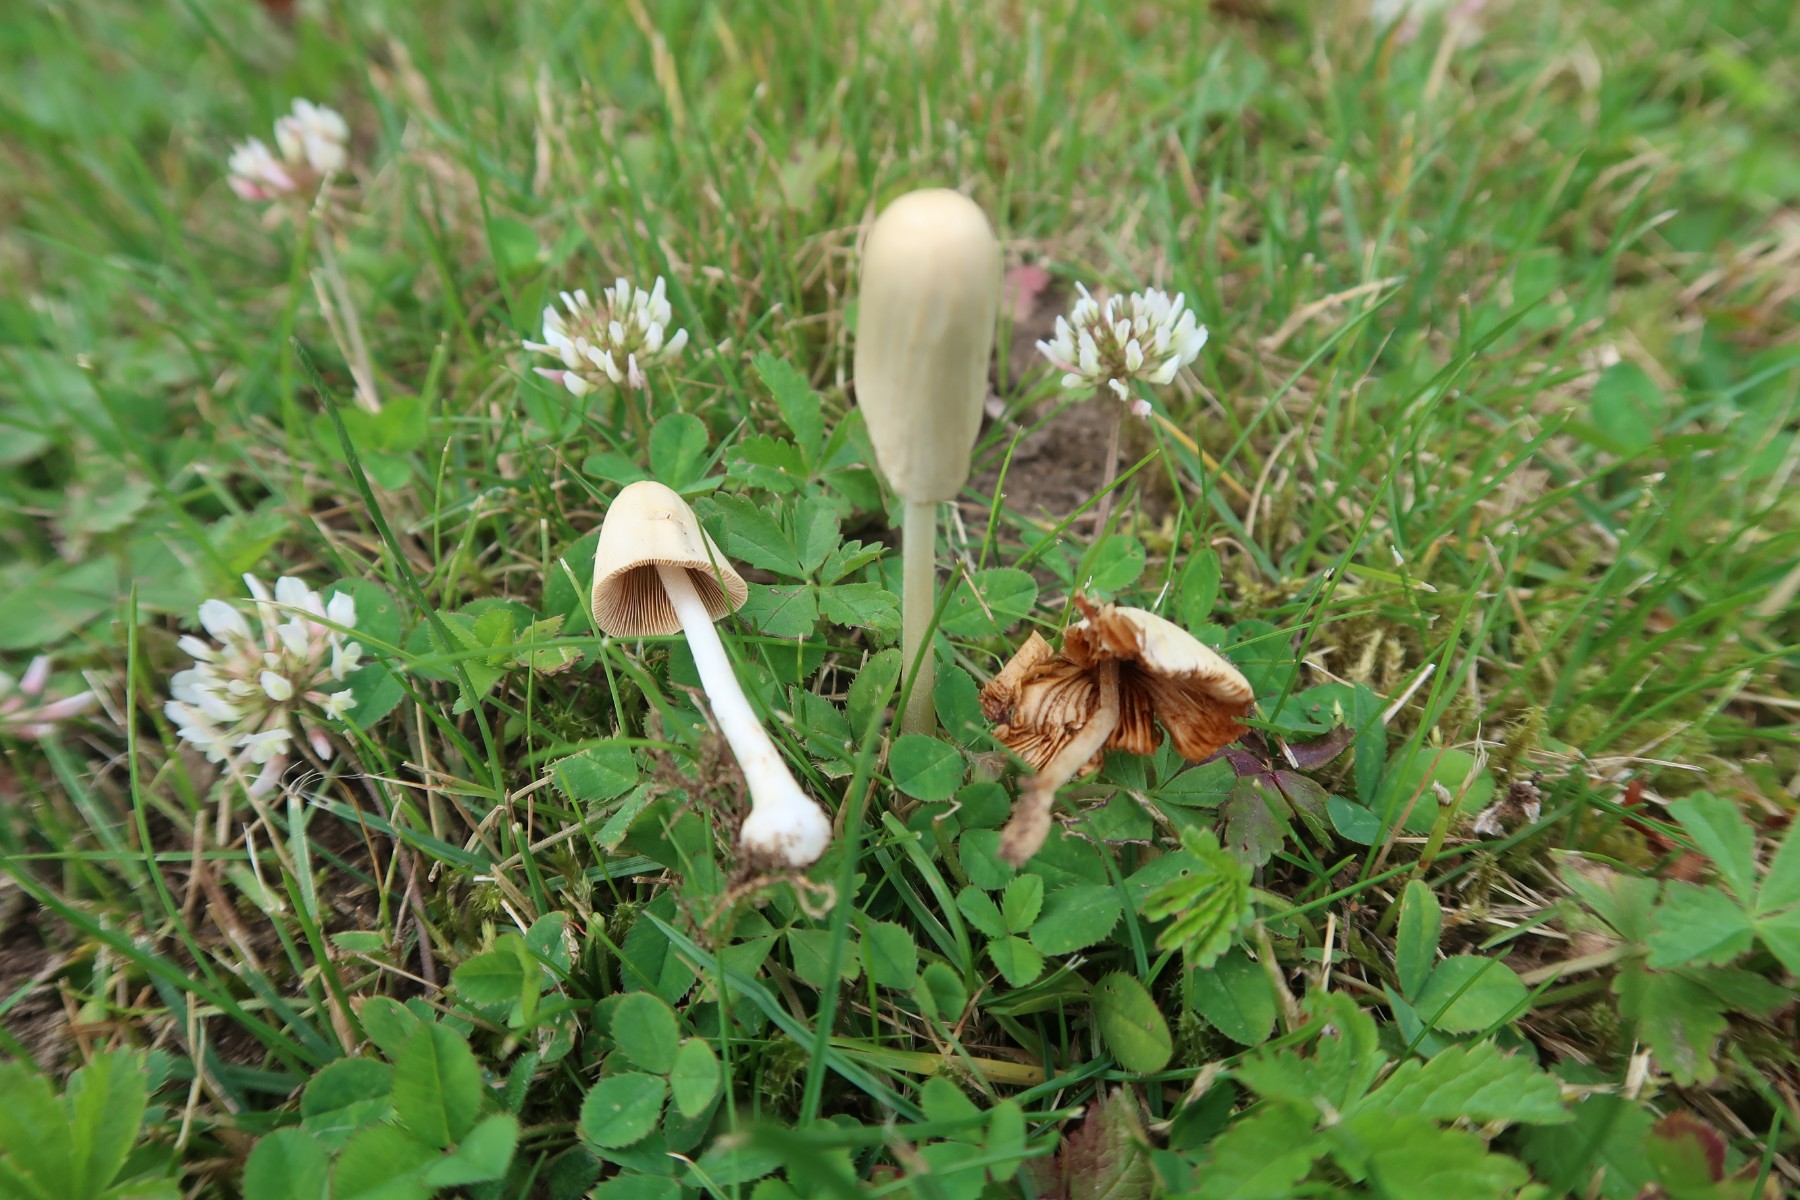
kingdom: Fungi
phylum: Basidiomycota
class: Agaricomycetes
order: Agaricales
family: Bolbitiaceae
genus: Conocybe
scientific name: Conocybe apala
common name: mælkehvid keglehat
